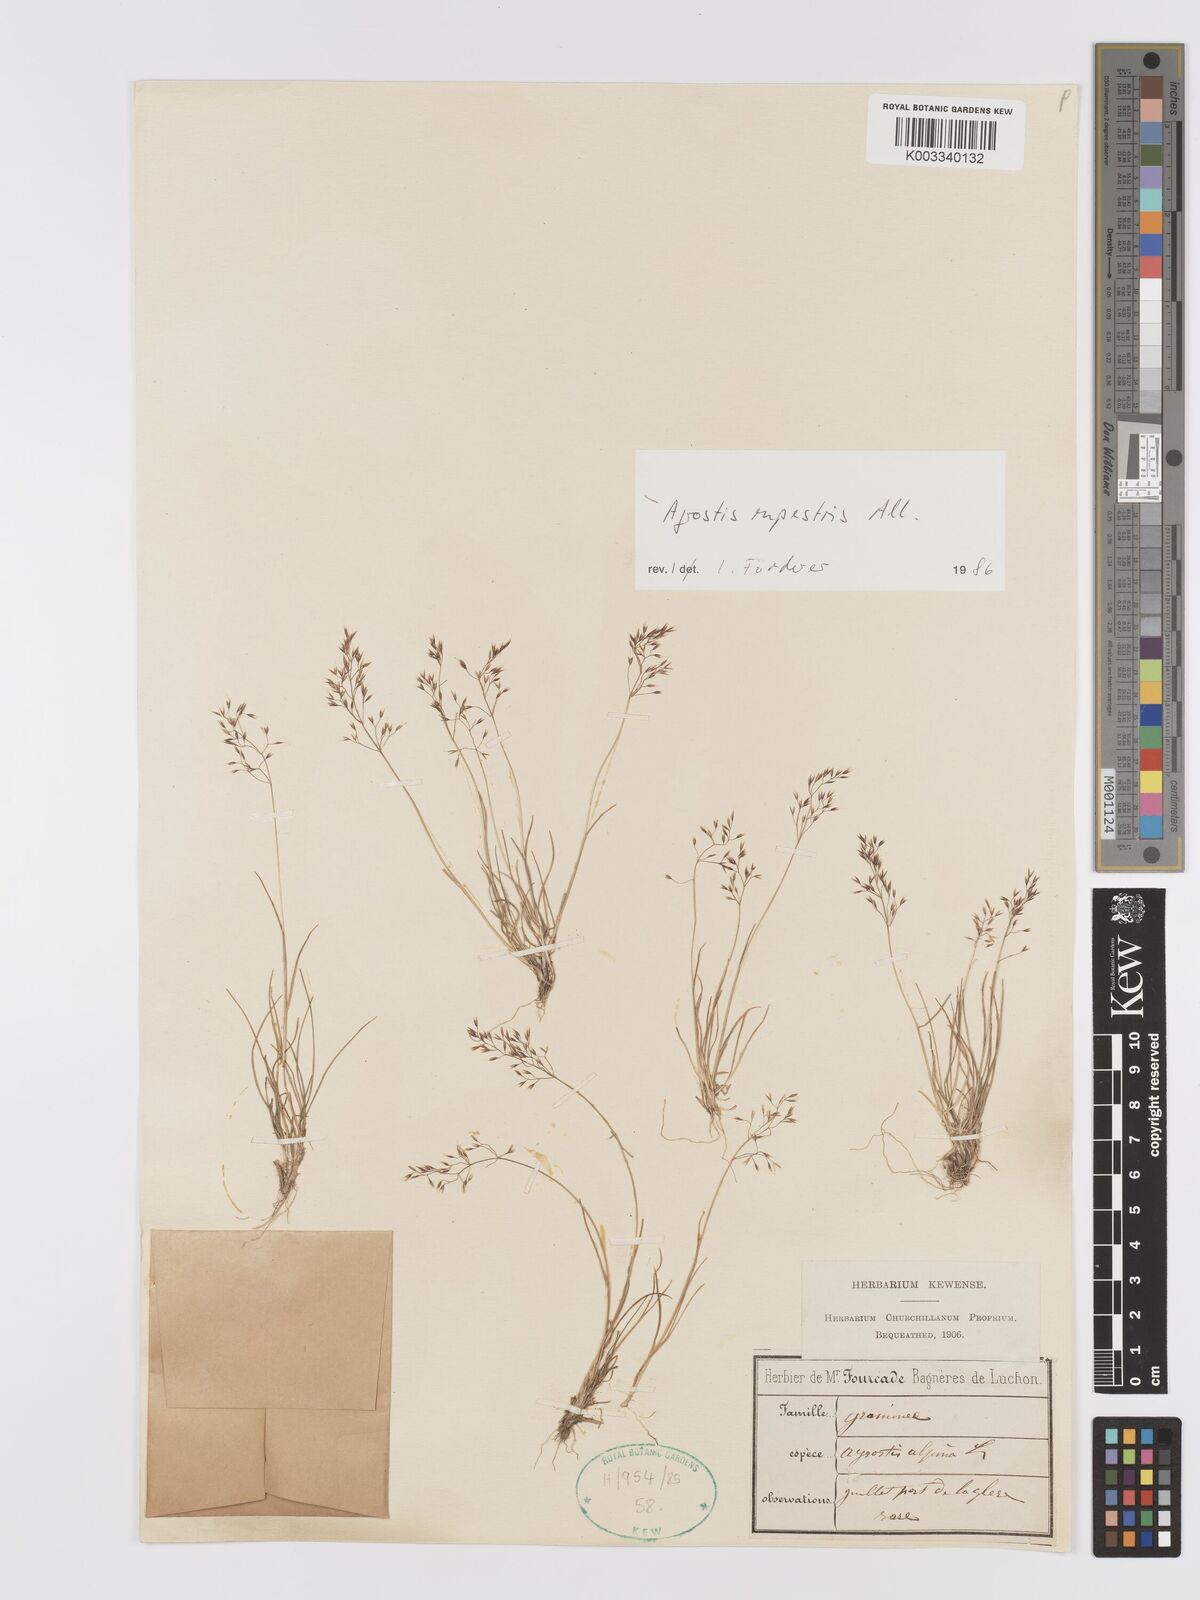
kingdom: Plantae
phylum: Tracheophyta
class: Liliopsida
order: Poales
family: Poaceae
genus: Agrostis
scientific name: Agrostis rupestris
